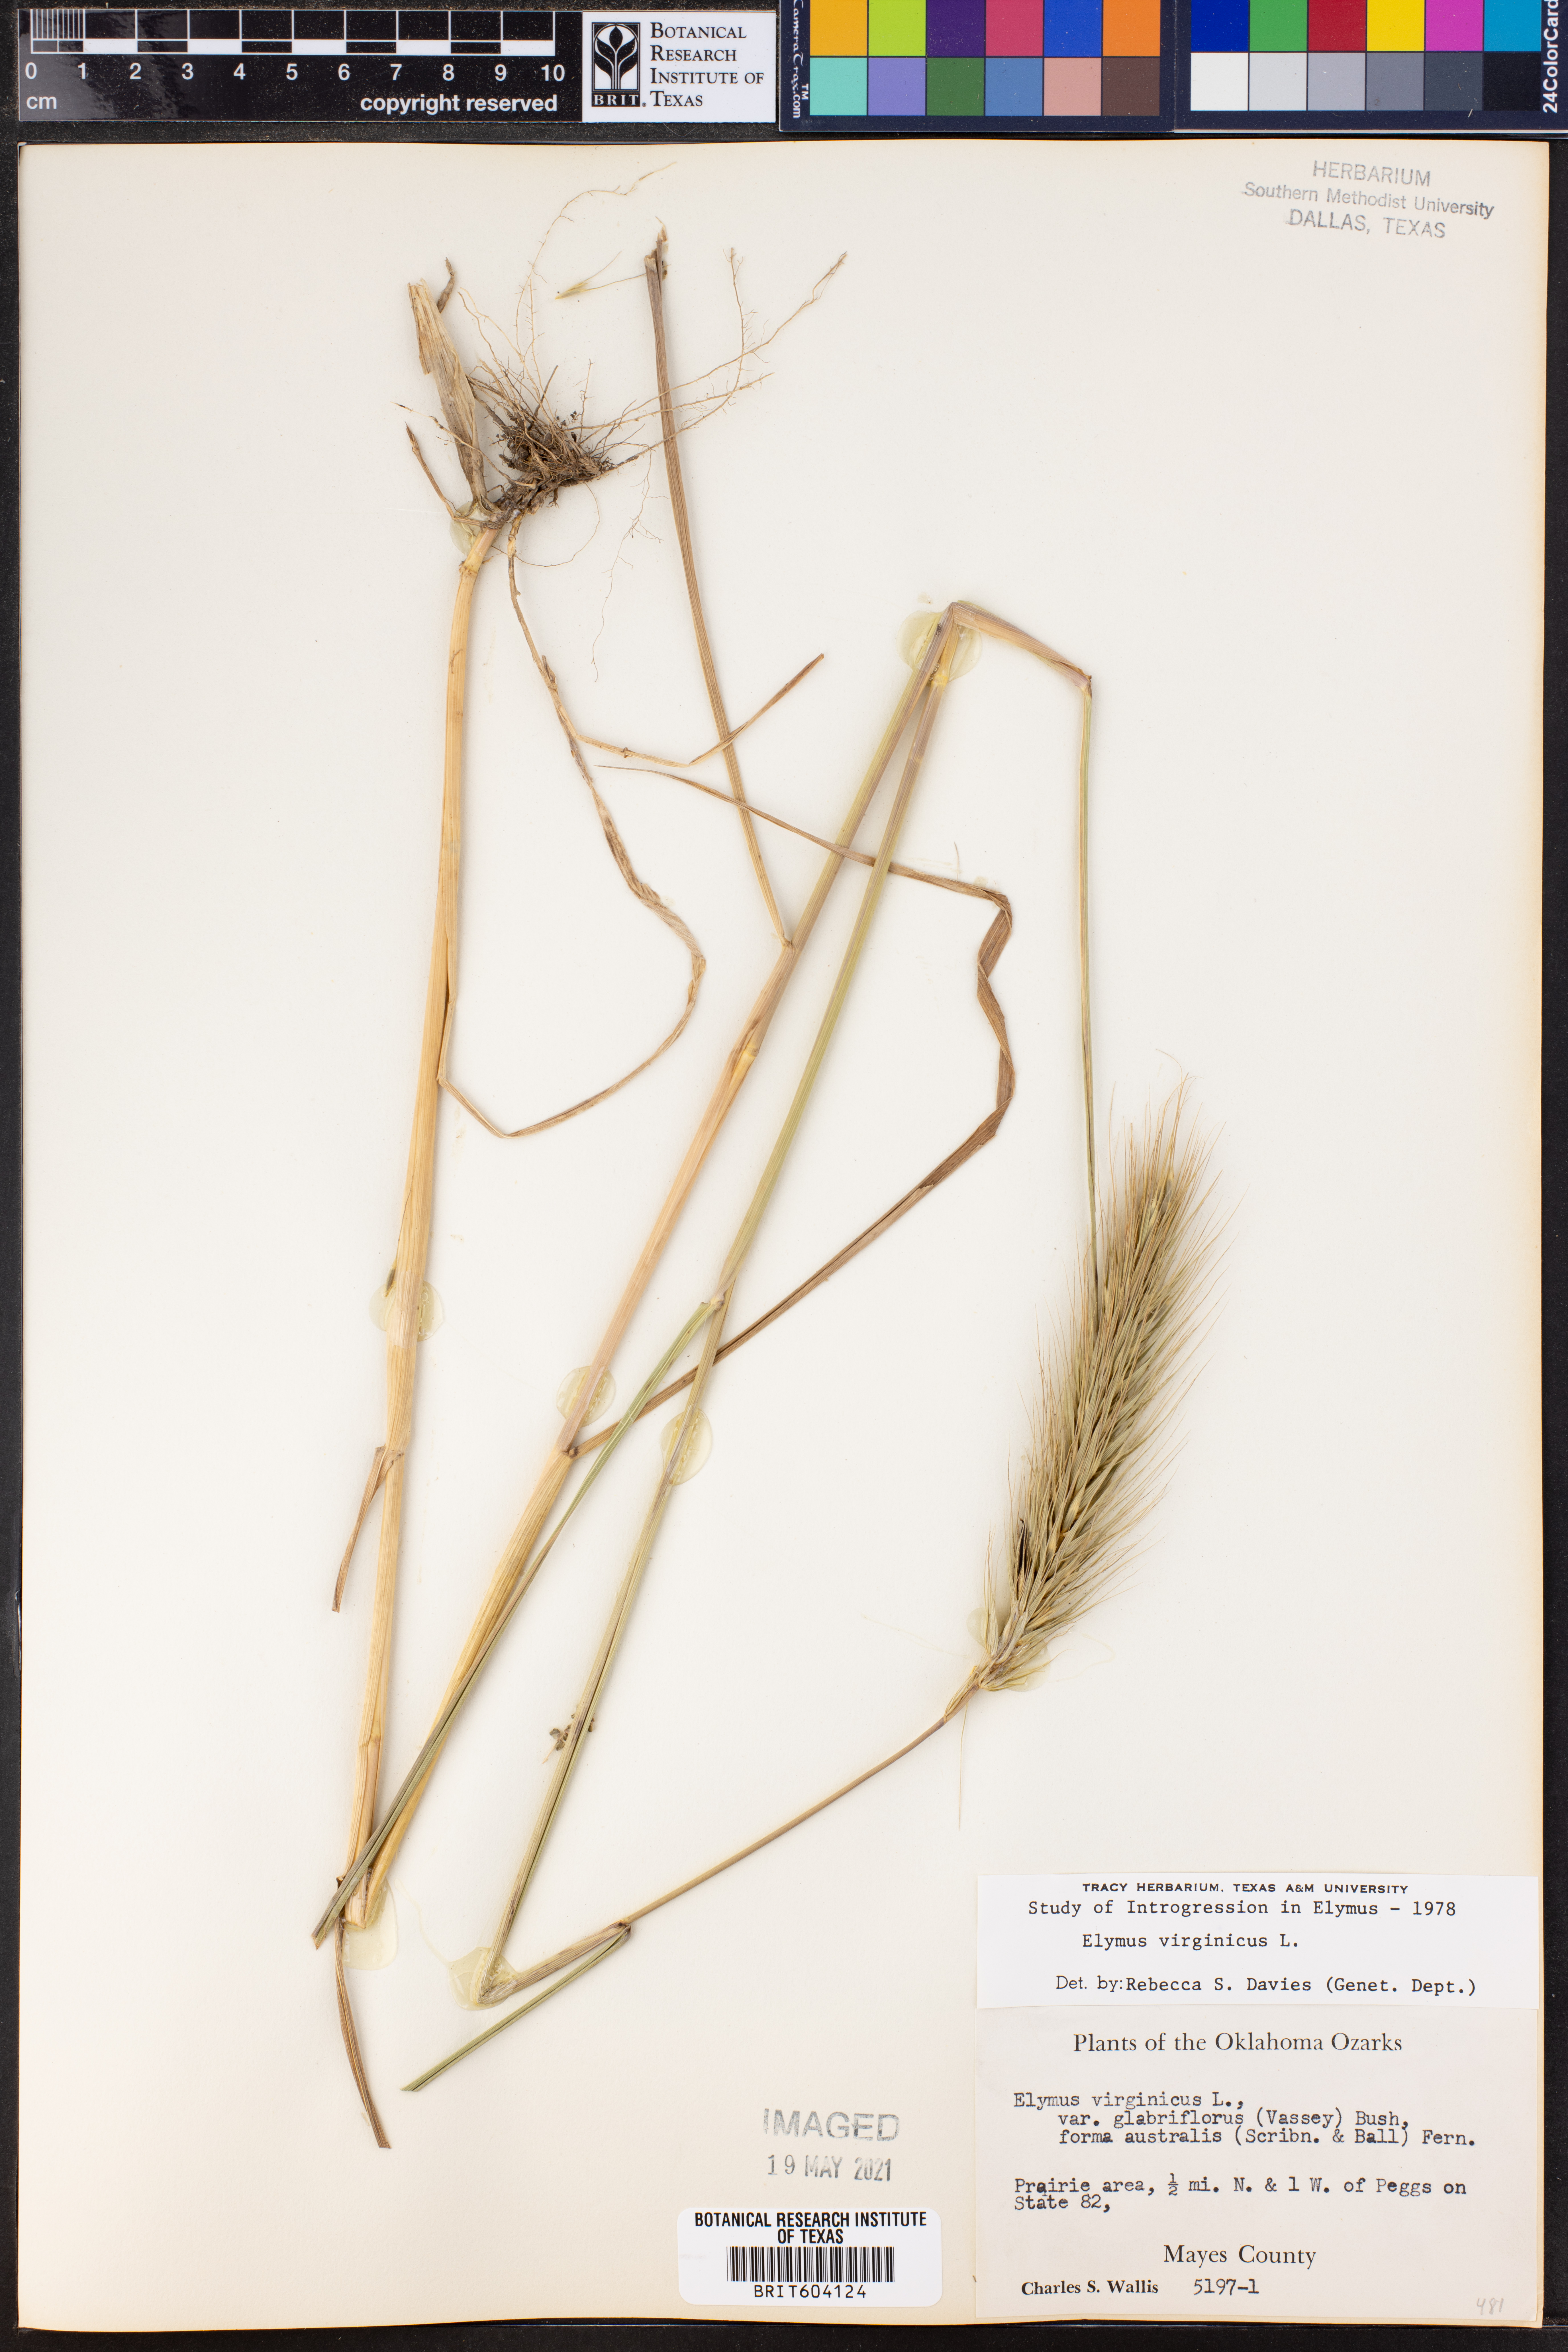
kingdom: Plantae
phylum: Tracheophyta
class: Liliopsida
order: Poales
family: Poaceae
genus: Elymus
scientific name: Elymus virginicus
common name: Common eastern wildrye
